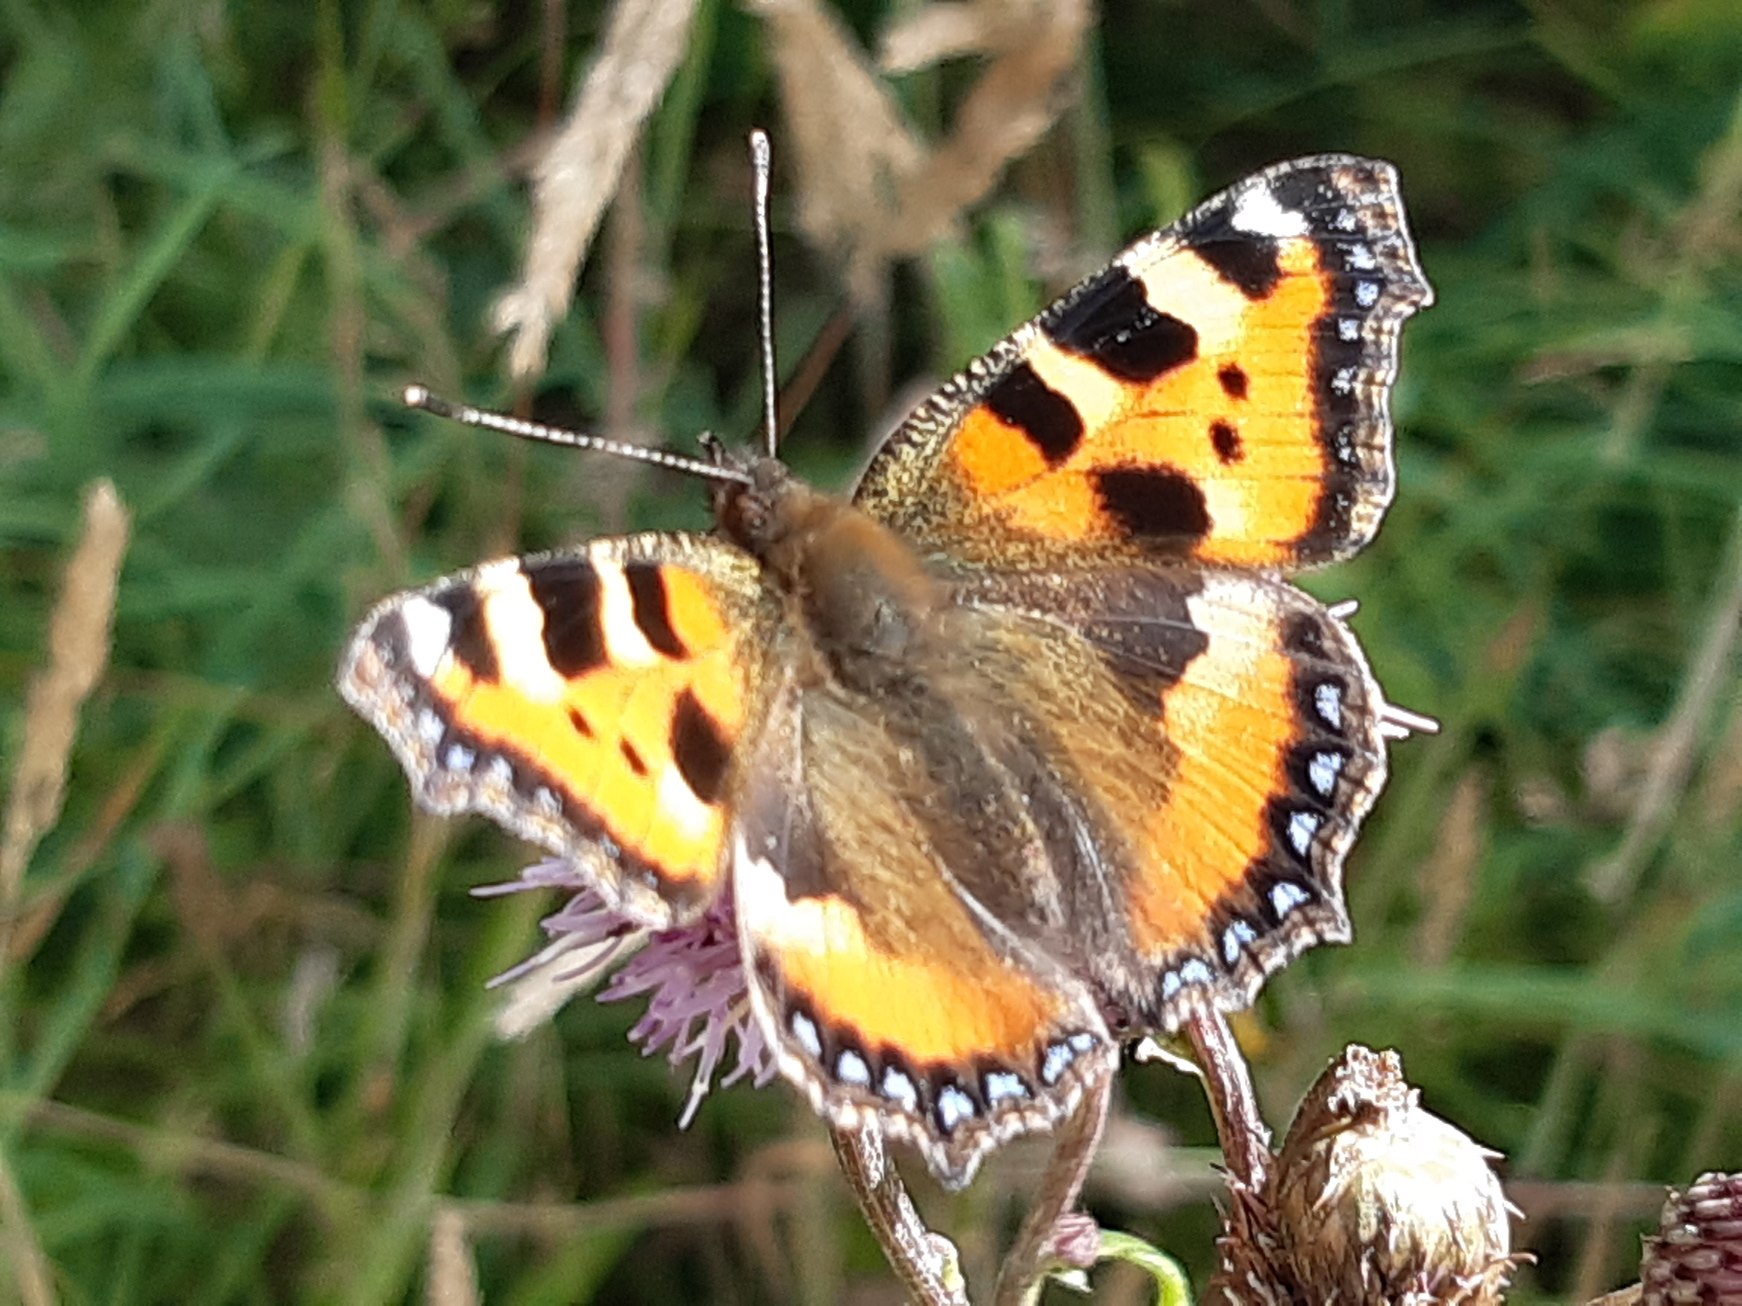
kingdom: Animalia
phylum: Arthropoda
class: Insecta
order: Lepidoptera
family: Nymphalidae
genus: Aglais
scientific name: Aglais urticae
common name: Nældens takvinge
